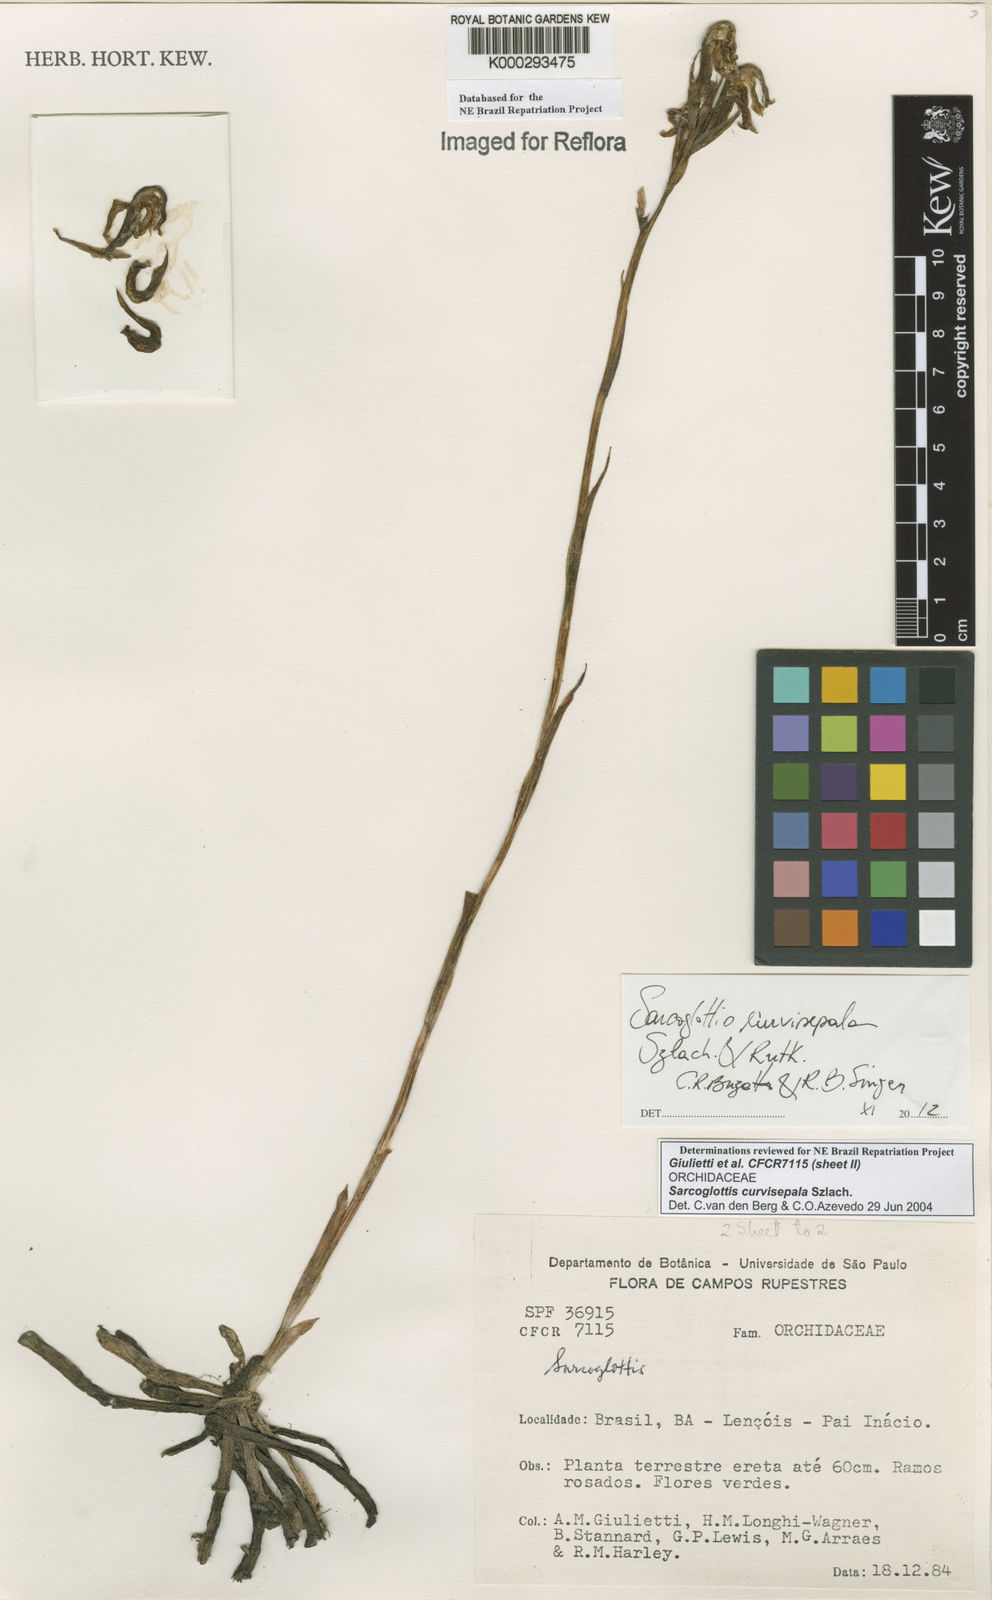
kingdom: Plantae
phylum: Tracheophyta
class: Liliopsida
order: Asparagales
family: Orchidaceae
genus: Sarcoglottis
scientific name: Sarcoglottis curvisepala
